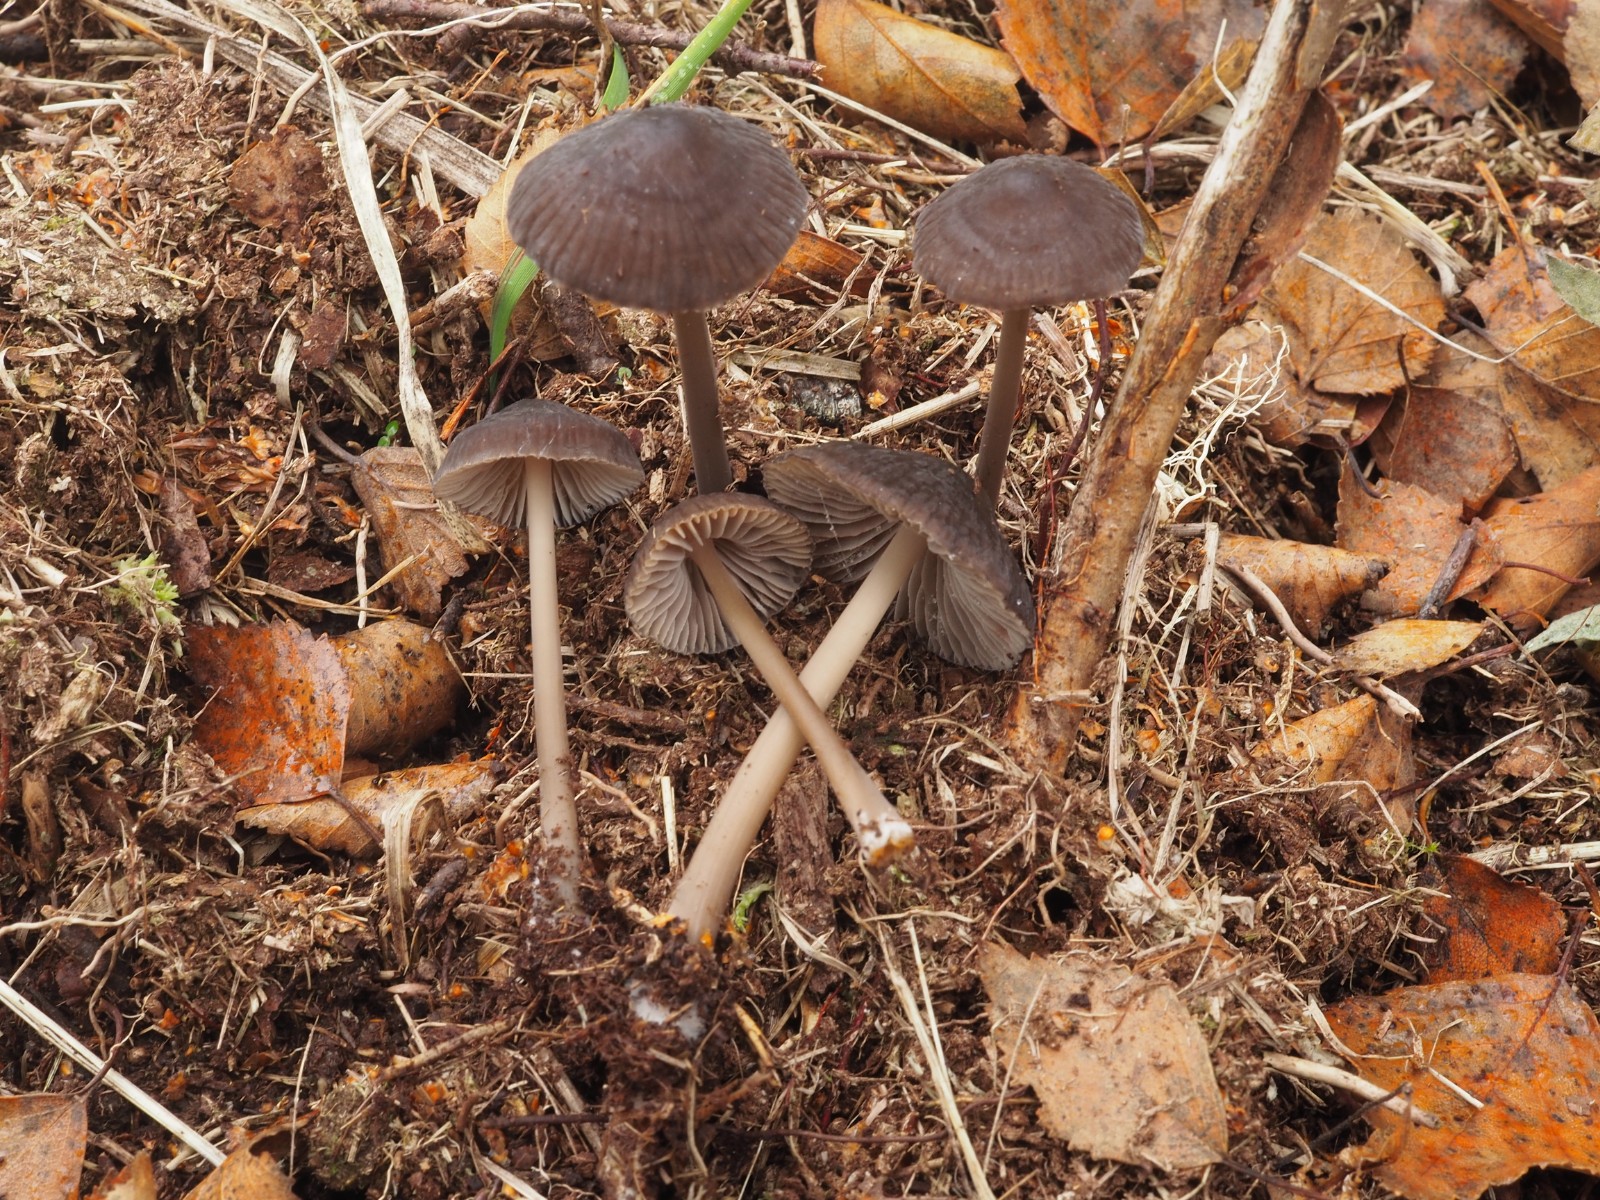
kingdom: Fungi
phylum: Basidiomycota
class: Agaricomycetes
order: Agaricales
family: Mycenaceae
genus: Mycena
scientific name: Mycena megaspora
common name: brusk-huesvamp
